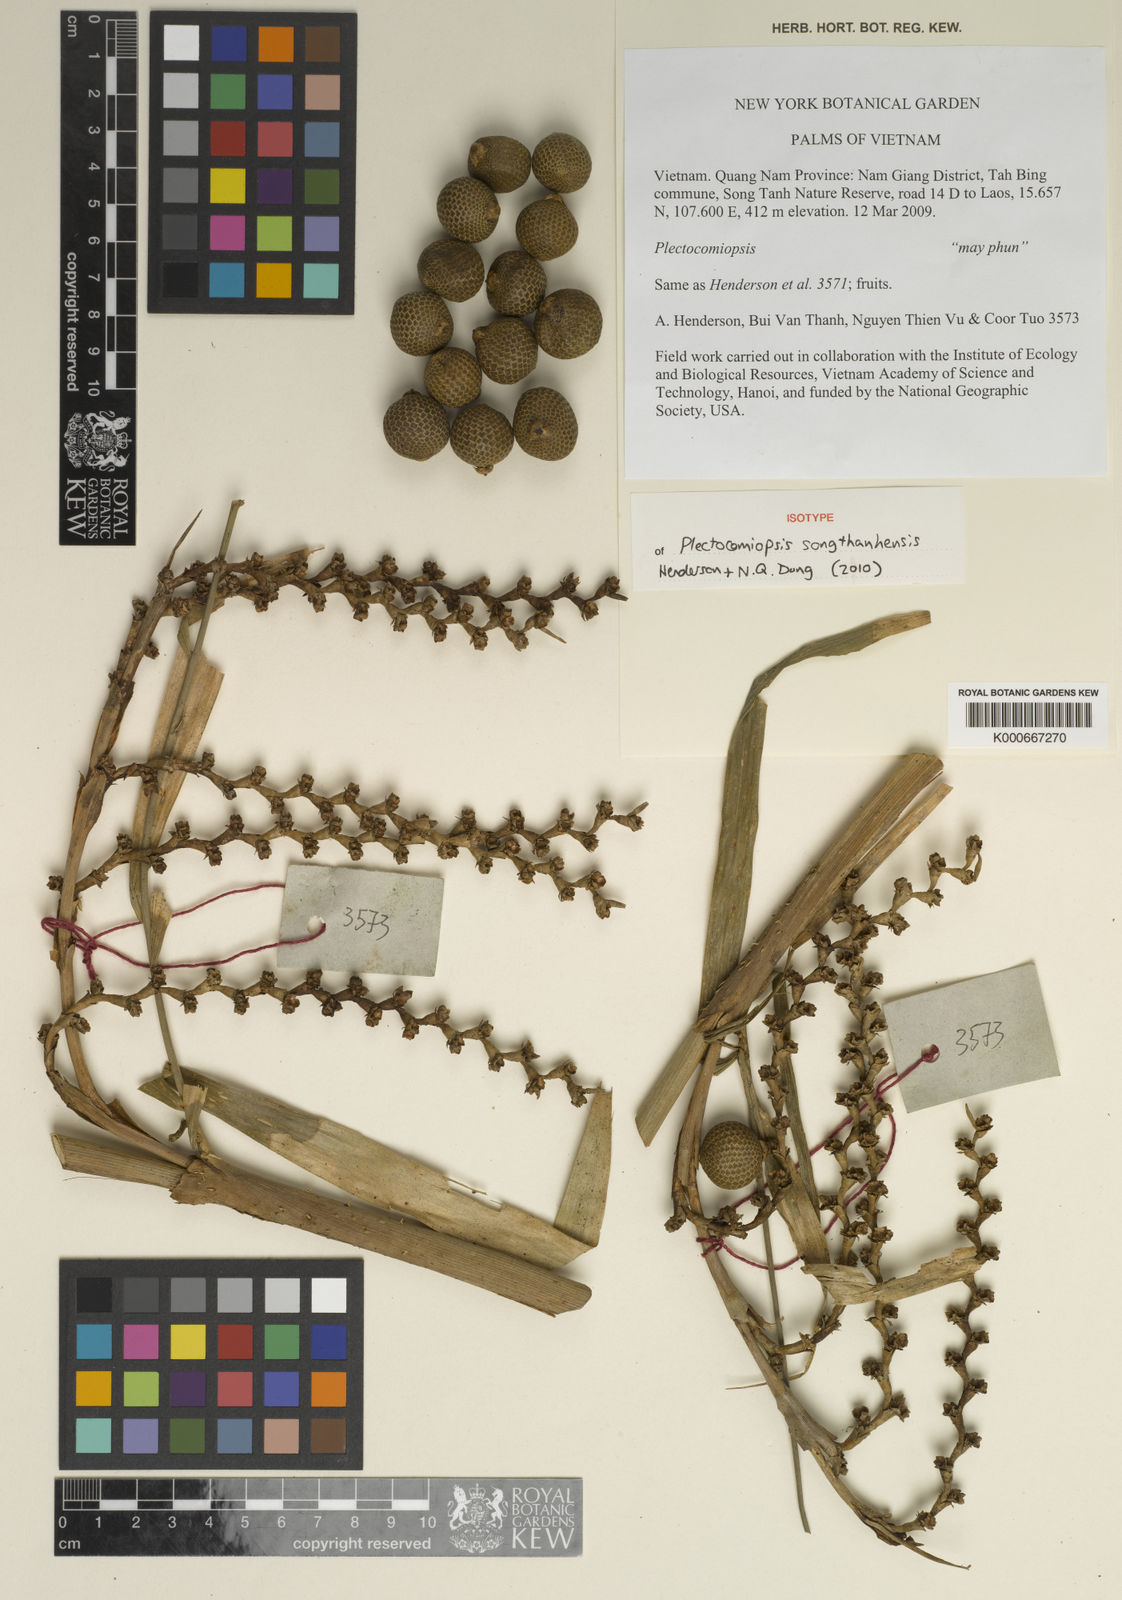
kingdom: Plantae
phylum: Tracheophyta
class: Liliopsida
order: Arecales
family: Arecaceae
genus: Plectocomiopsis
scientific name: Plectocomiopsis songthanhensis
